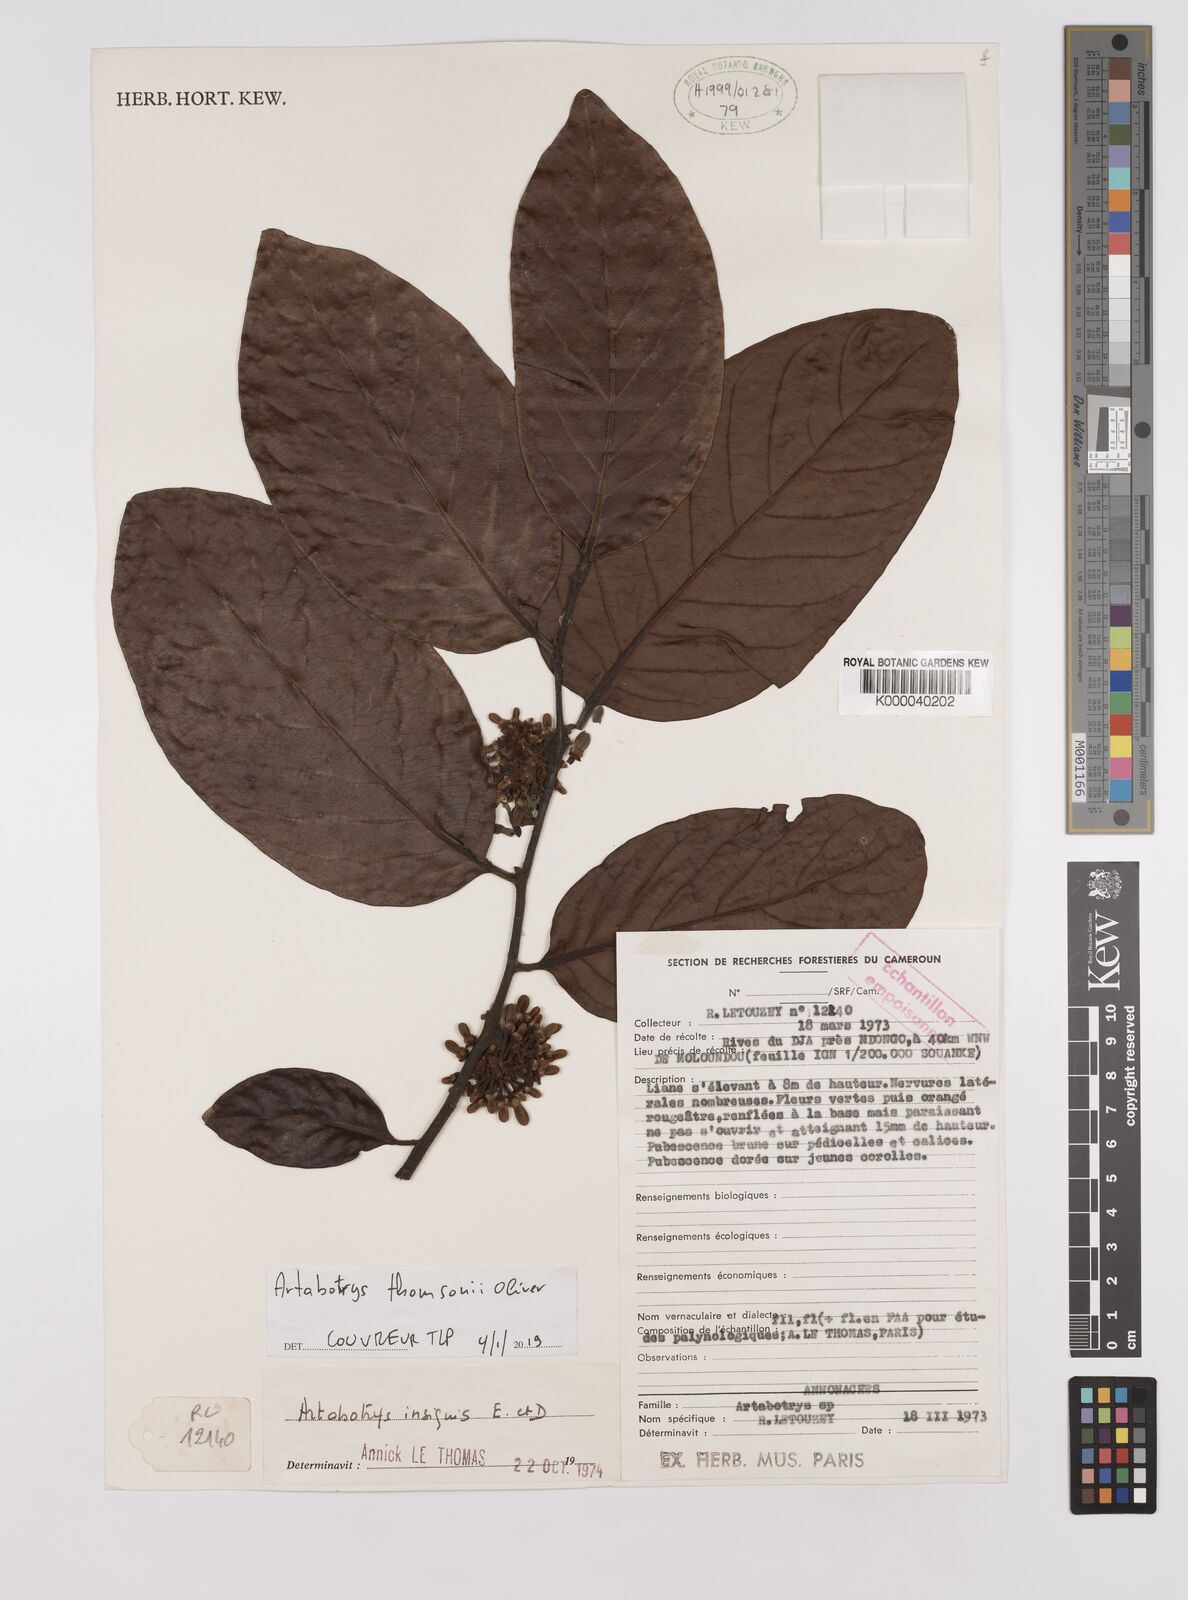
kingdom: Plantae
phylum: Tracheophyta
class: Magnoliopsida
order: Magnoliales
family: Annonaceae
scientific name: Annonaceae
